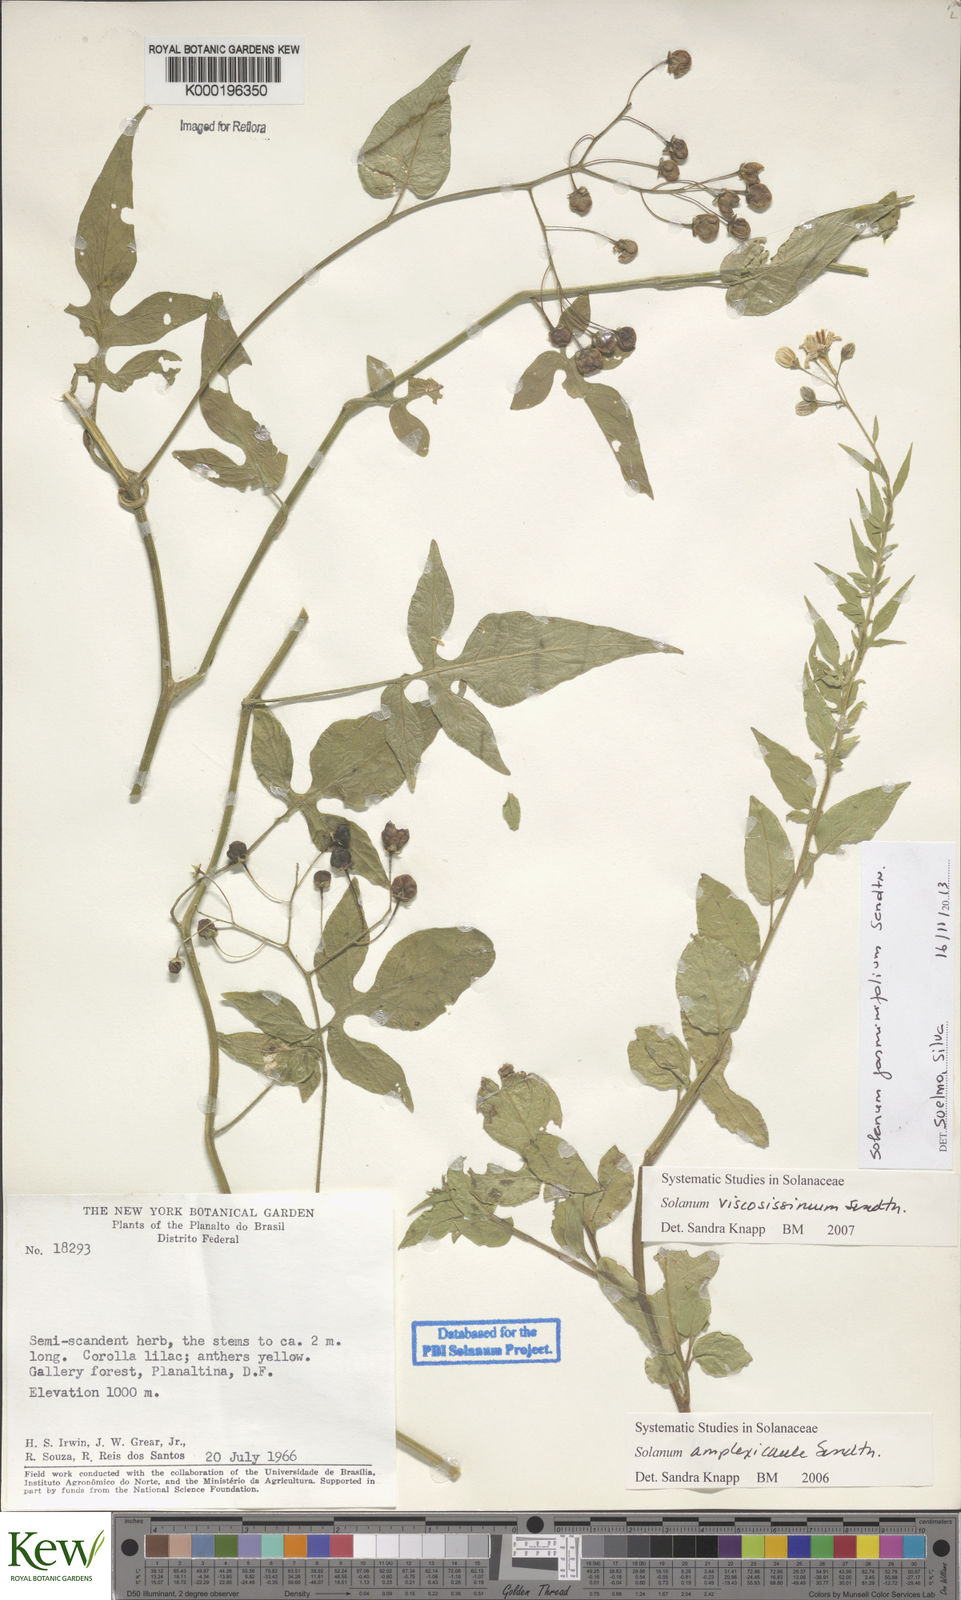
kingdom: Plantae
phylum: Tracheophyta
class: Magnoliopsida
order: Solanales
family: Solanaceae
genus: Solanum
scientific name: Solanum viscosissimum
